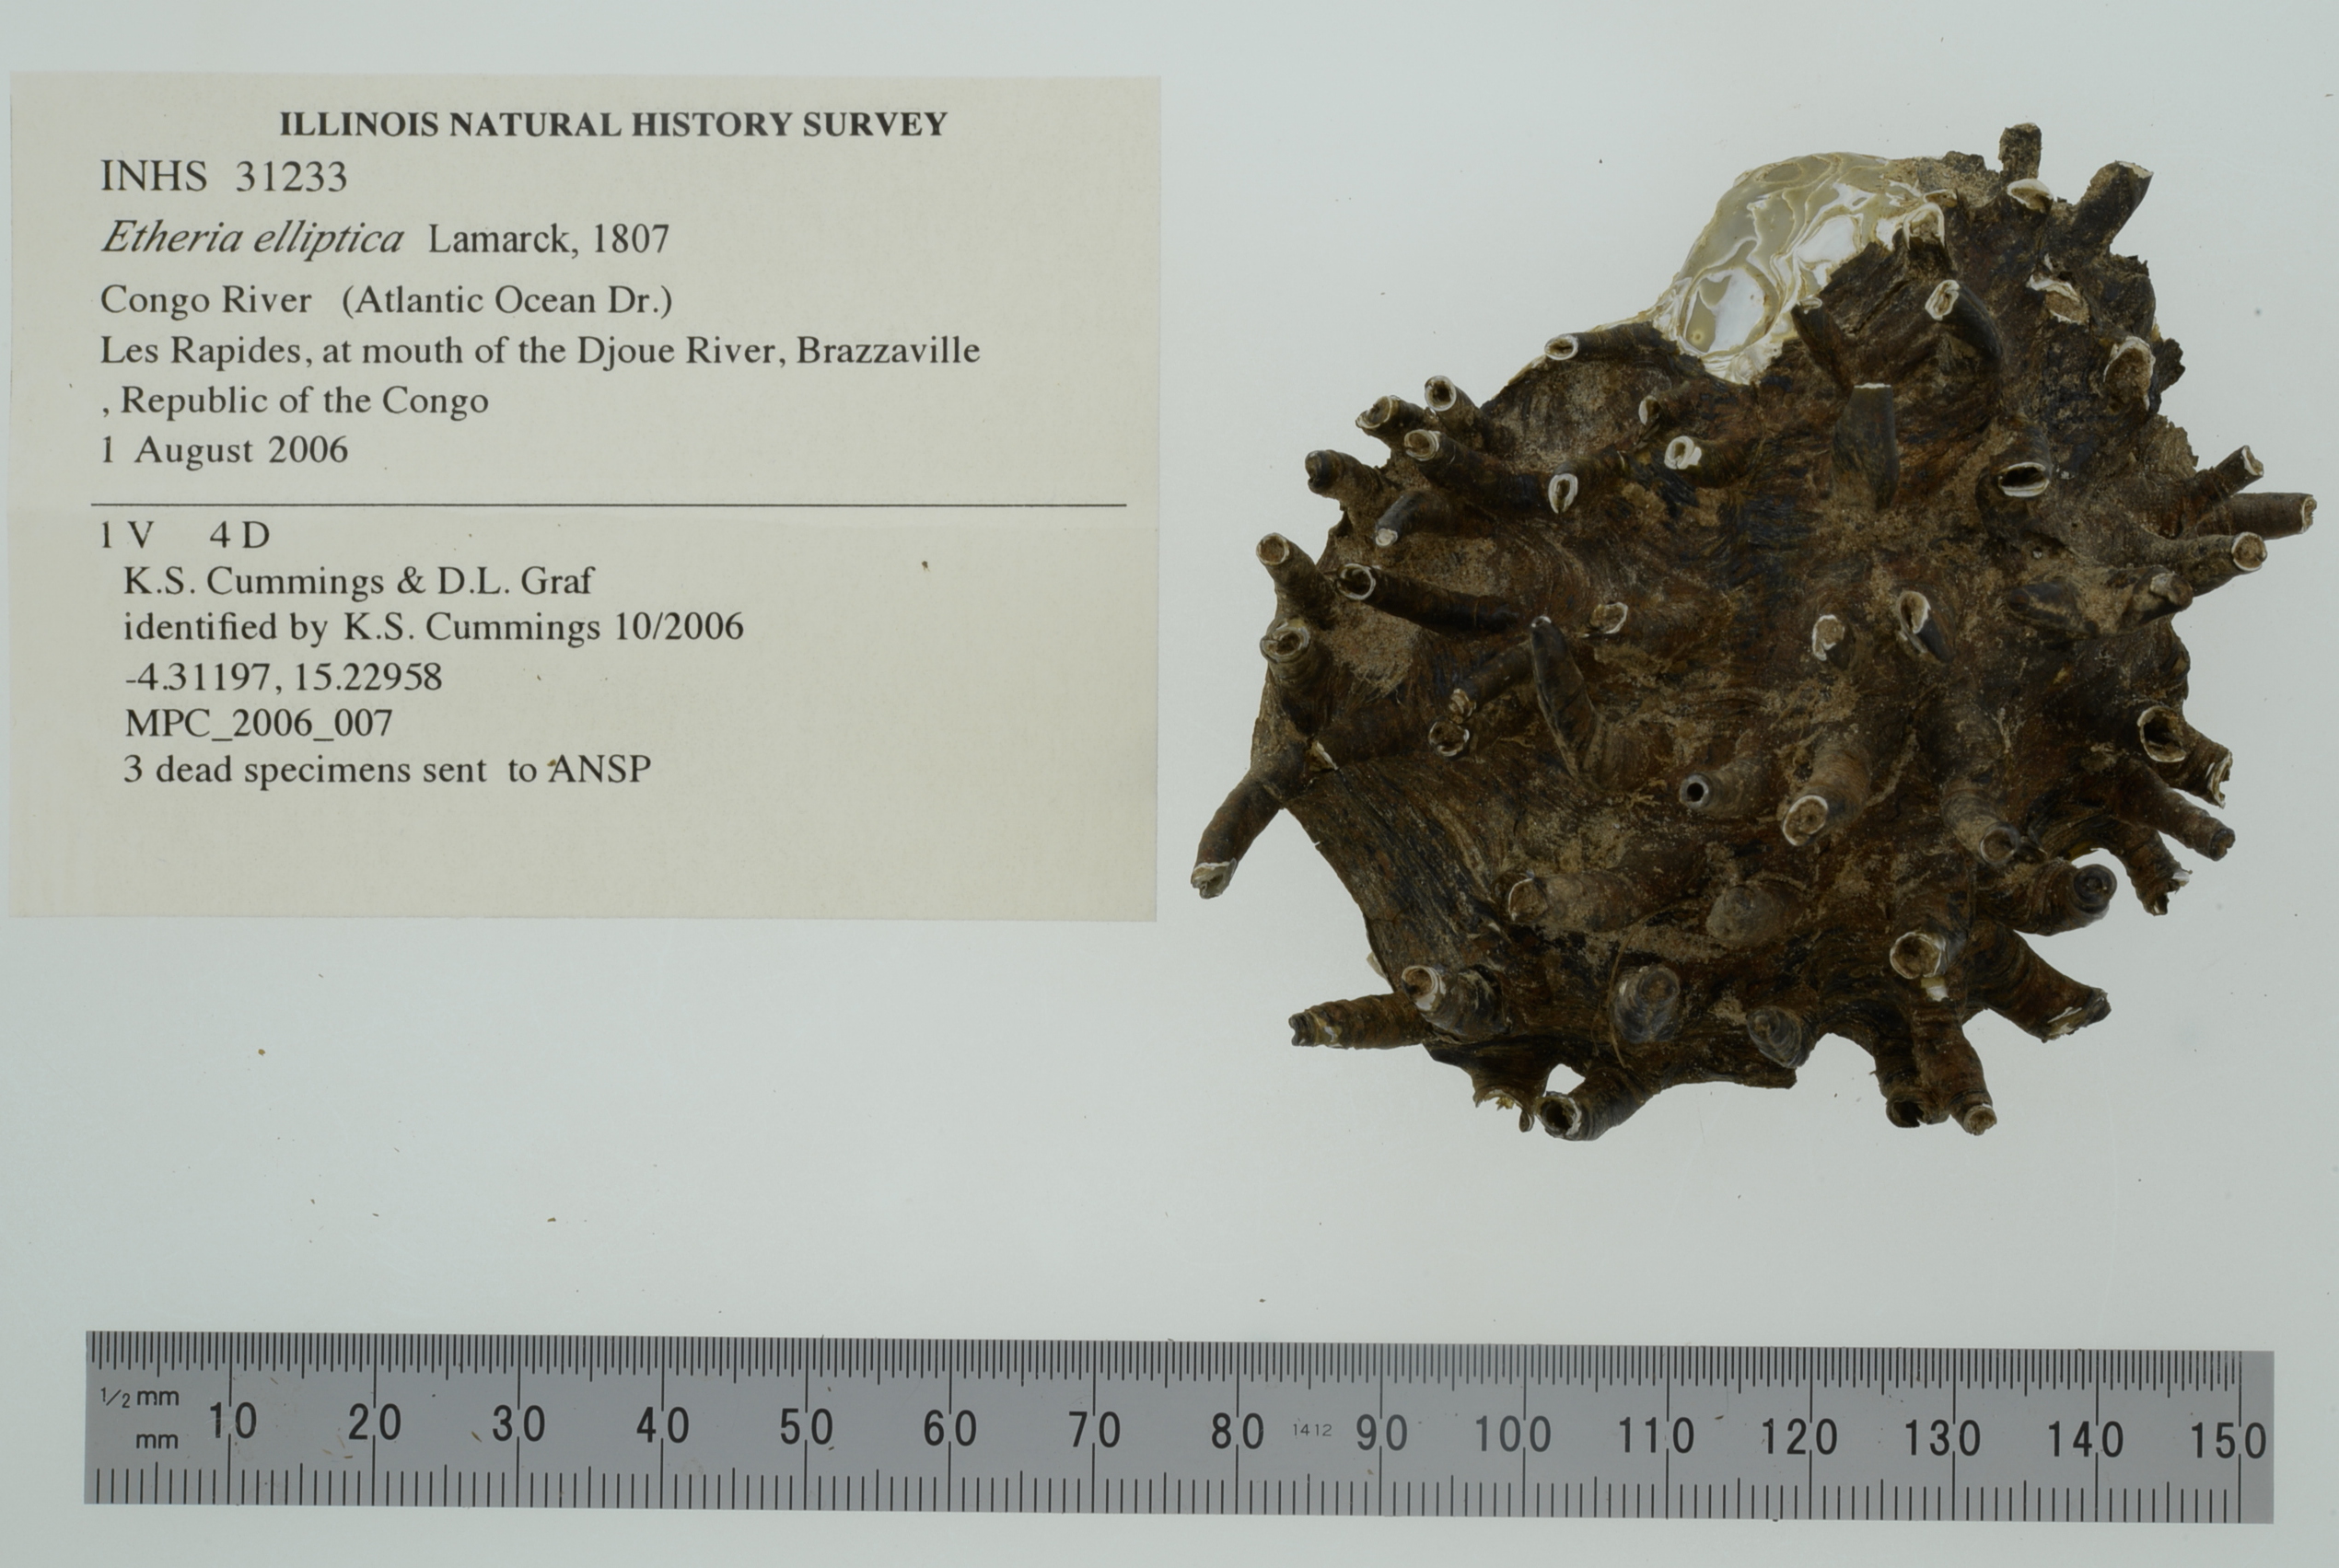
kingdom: Animalia
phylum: Mollusca
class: Bivalvia
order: Unionida
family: Etheriidae
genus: Etheria
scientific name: Etheria elliptica
